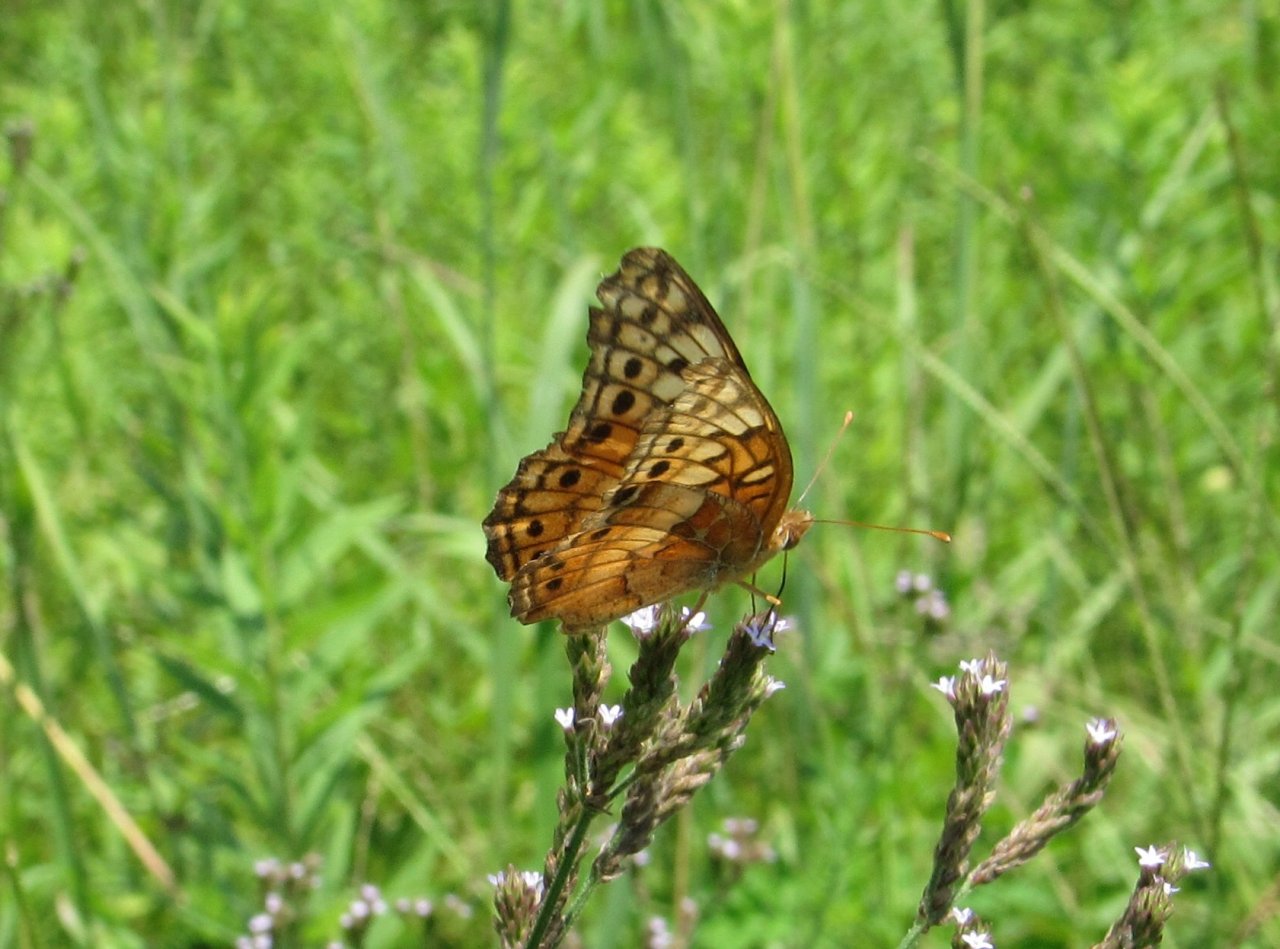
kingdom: Animalia
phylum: Arthropoda
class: Insecta
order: Lepidoptera
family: Nymphalidae
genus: Euptoieta
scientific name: Euptoieta claudia
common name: Variegated Fritillary
